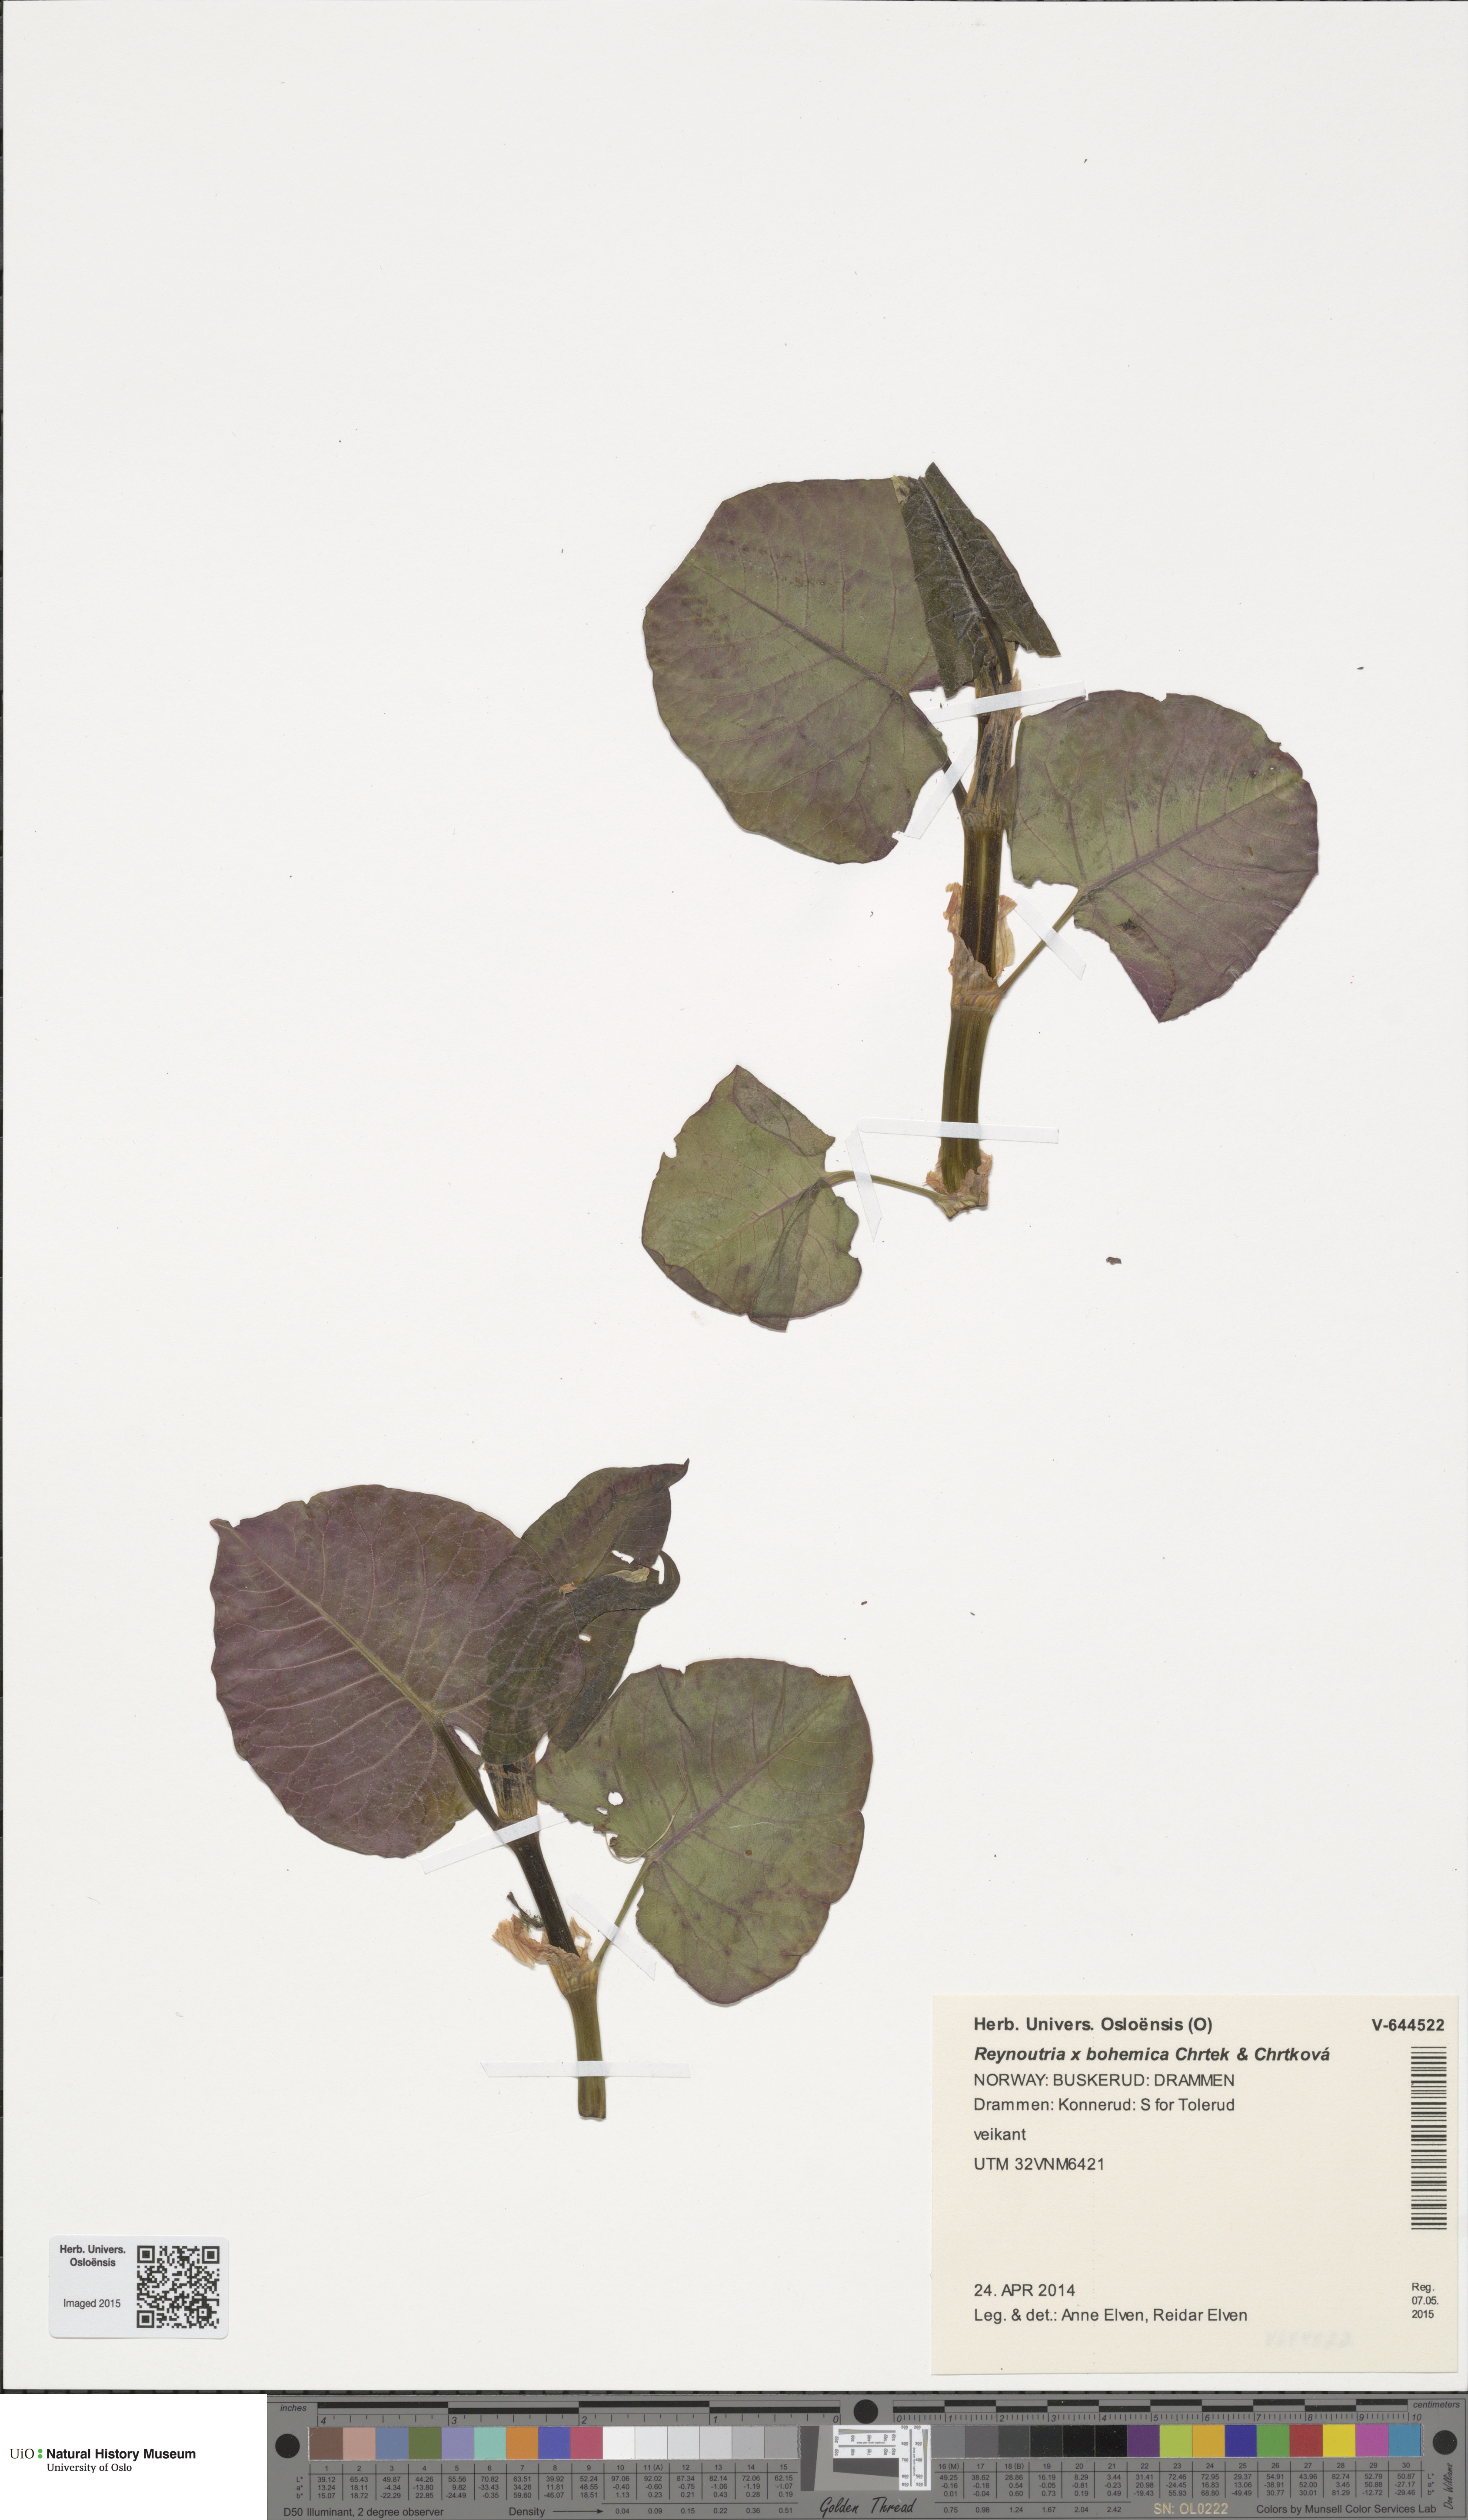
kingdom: Plantae
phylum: Tracheophyta
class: Magnoliopsida
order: Caryophyllales
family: Polygonaceae
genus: Reynoutria
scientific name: Reynoutria bohemica
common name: Bohemian knotweed
